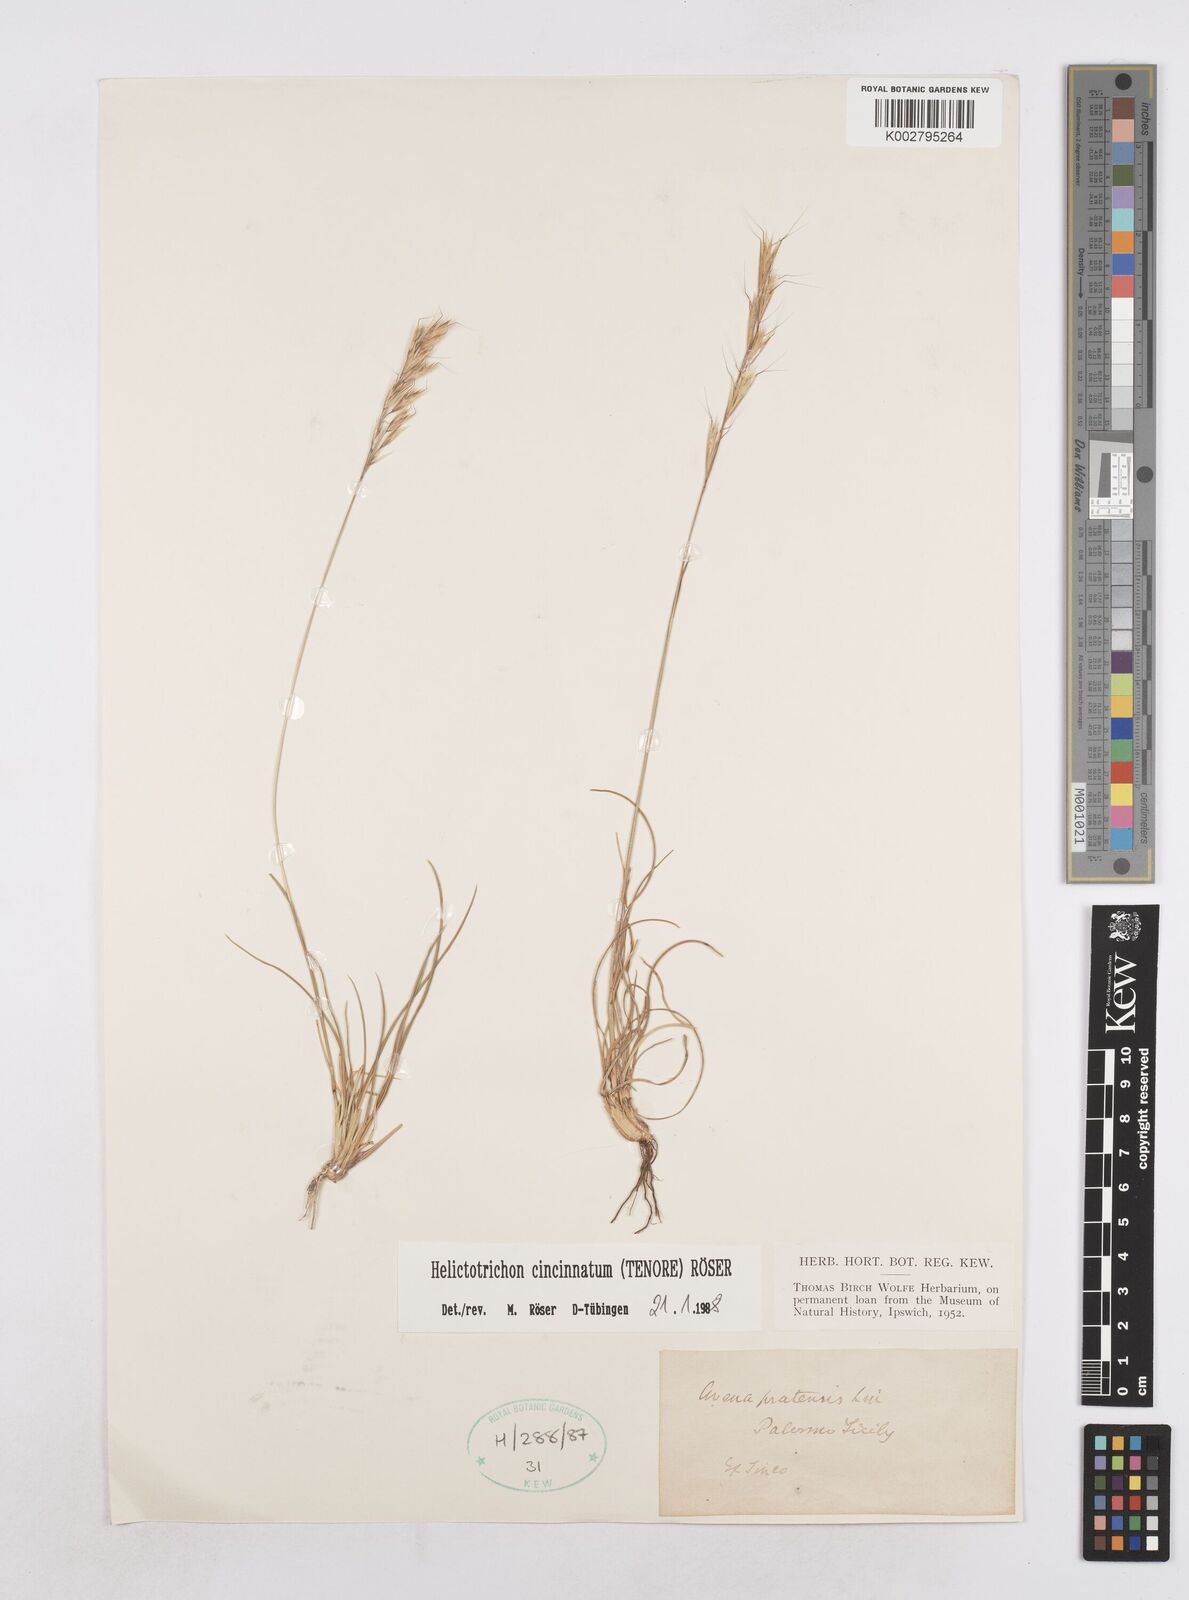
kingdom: Plantae
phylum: Tracheophyta
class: Liliopsida
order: Poales
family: Poaceae
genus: Helictochloa
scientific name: Helictochloa cincinnata
